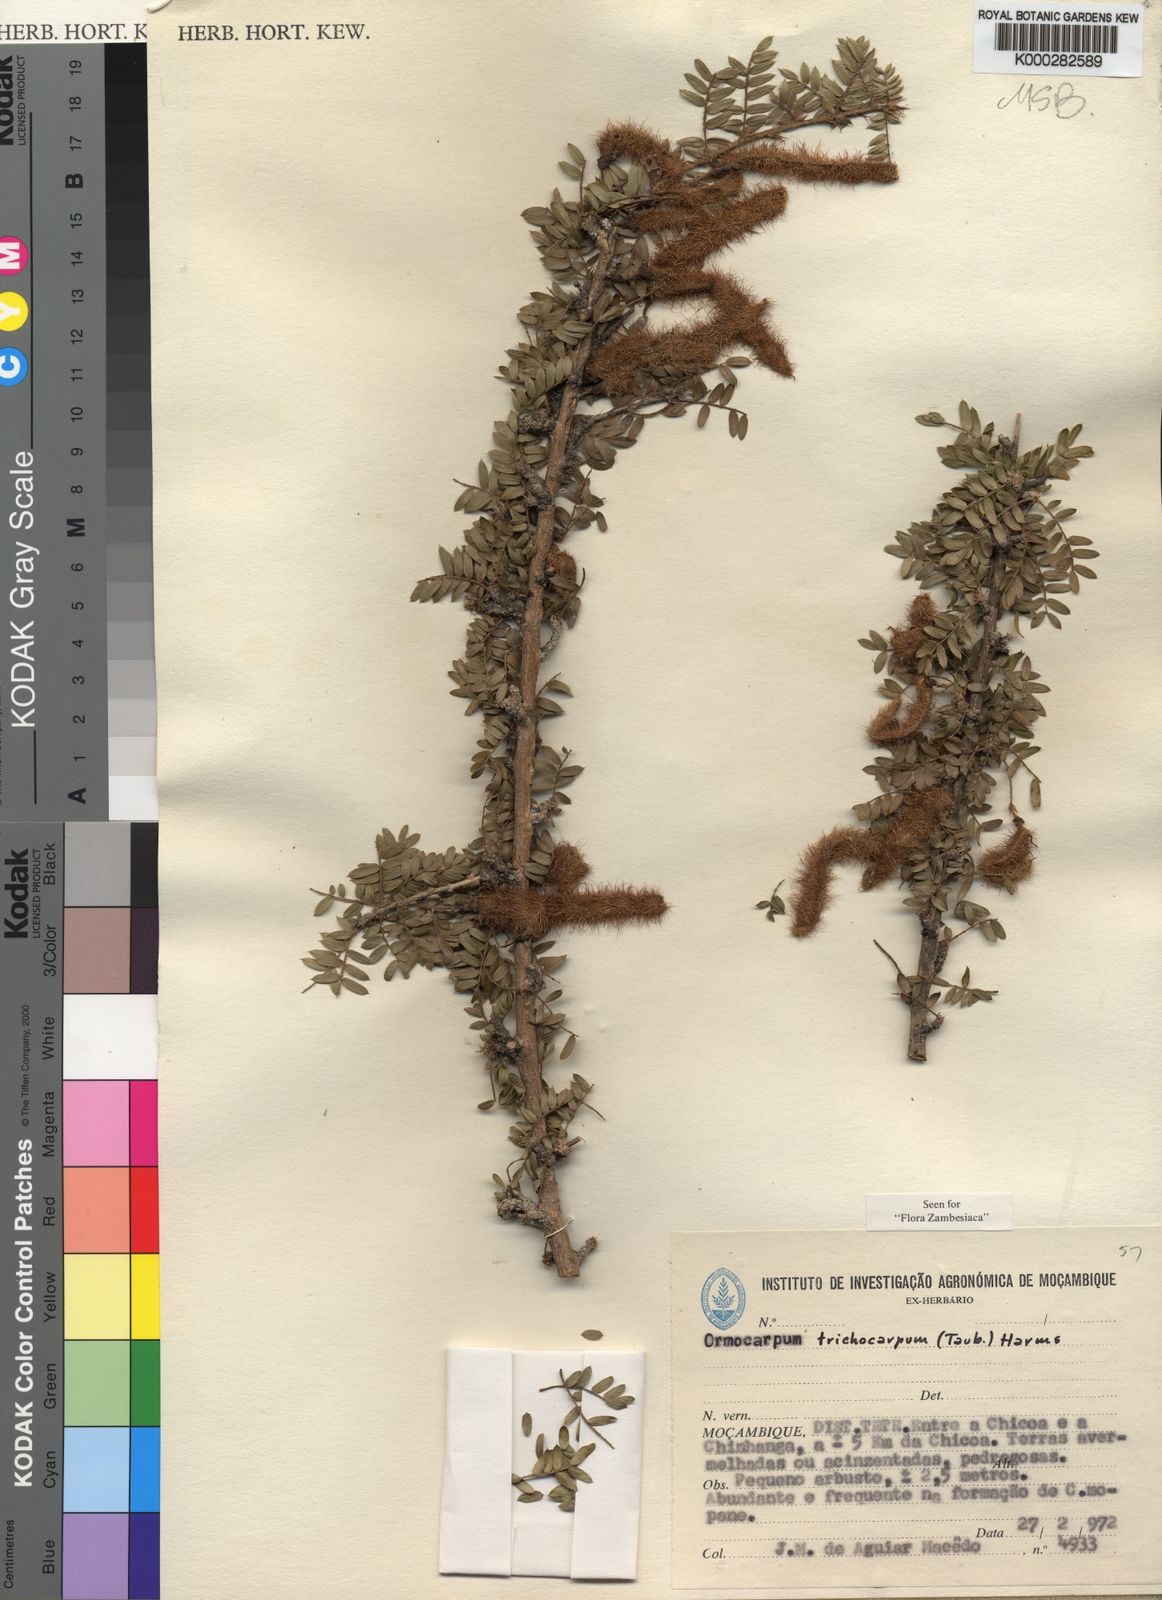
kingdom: Plantae
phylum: Tracheophyta
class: Magnoliopsida
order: Fabales
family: Fabaceae
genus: Ormocarpum
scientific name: Ormocarpum trichocarpum
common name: Caterpillar bush
